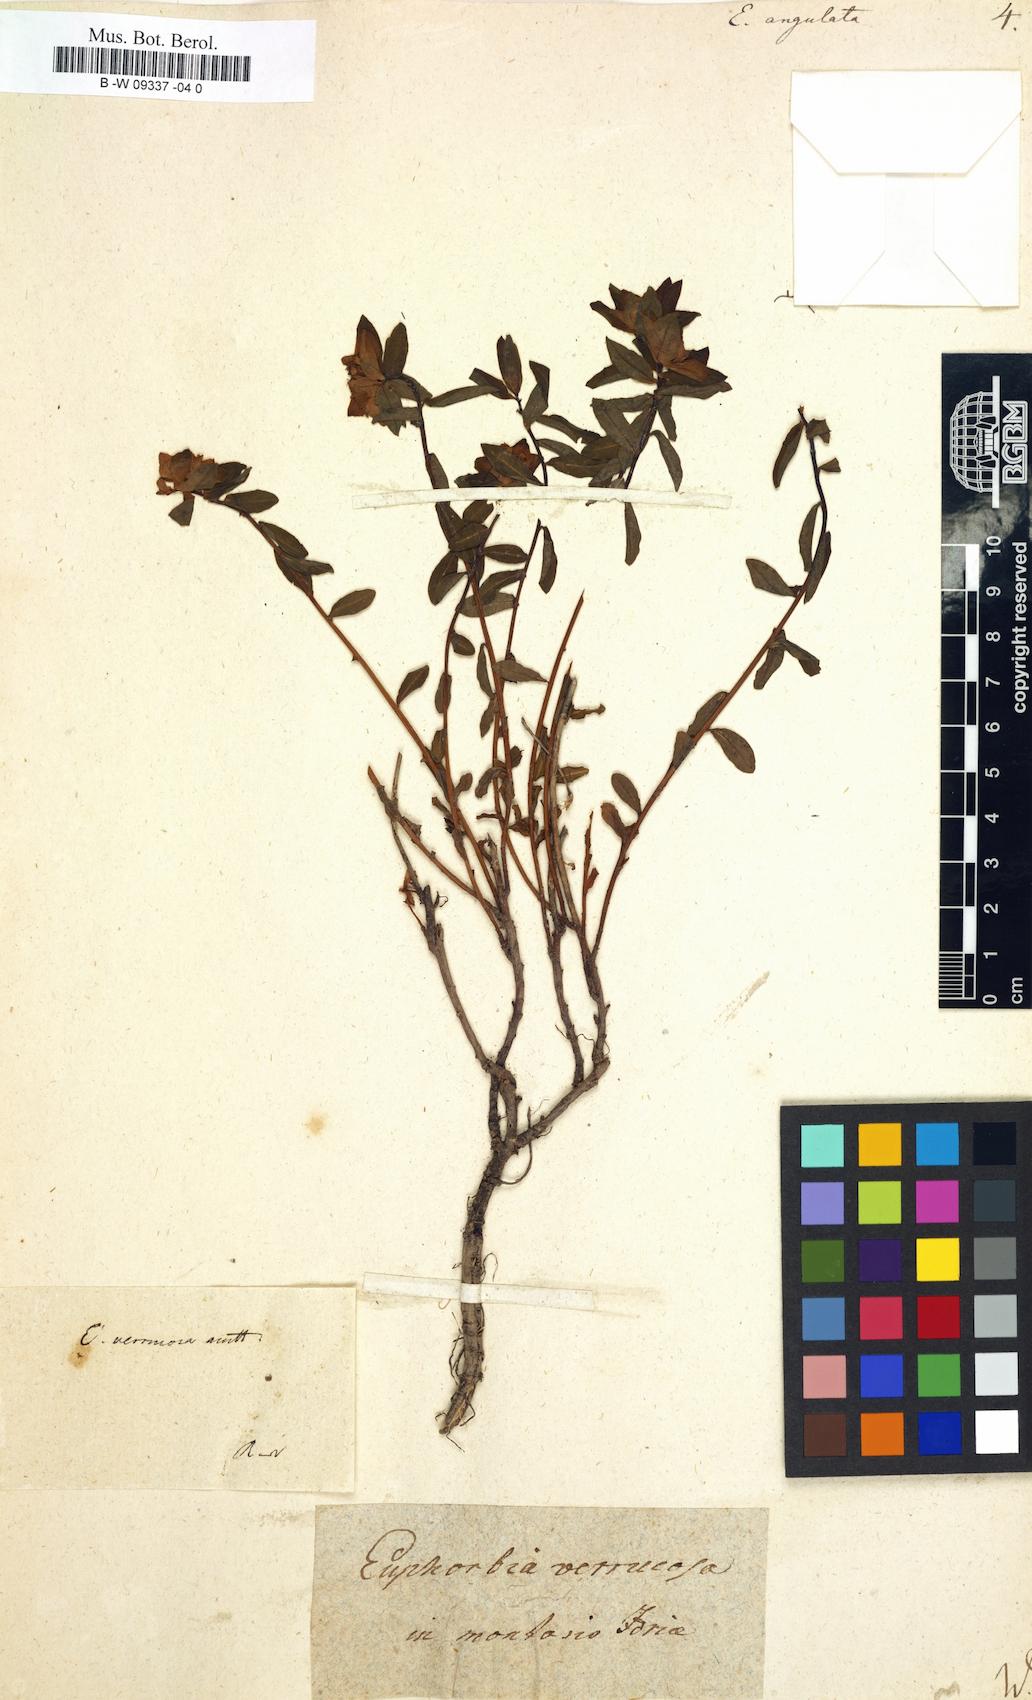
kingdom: Plantae
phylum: Tracheophyta
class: Magnoliopsida
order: Malpighiales
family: Euphorbiaceae
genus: Euphorbia
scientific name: Euphorbia angulata
